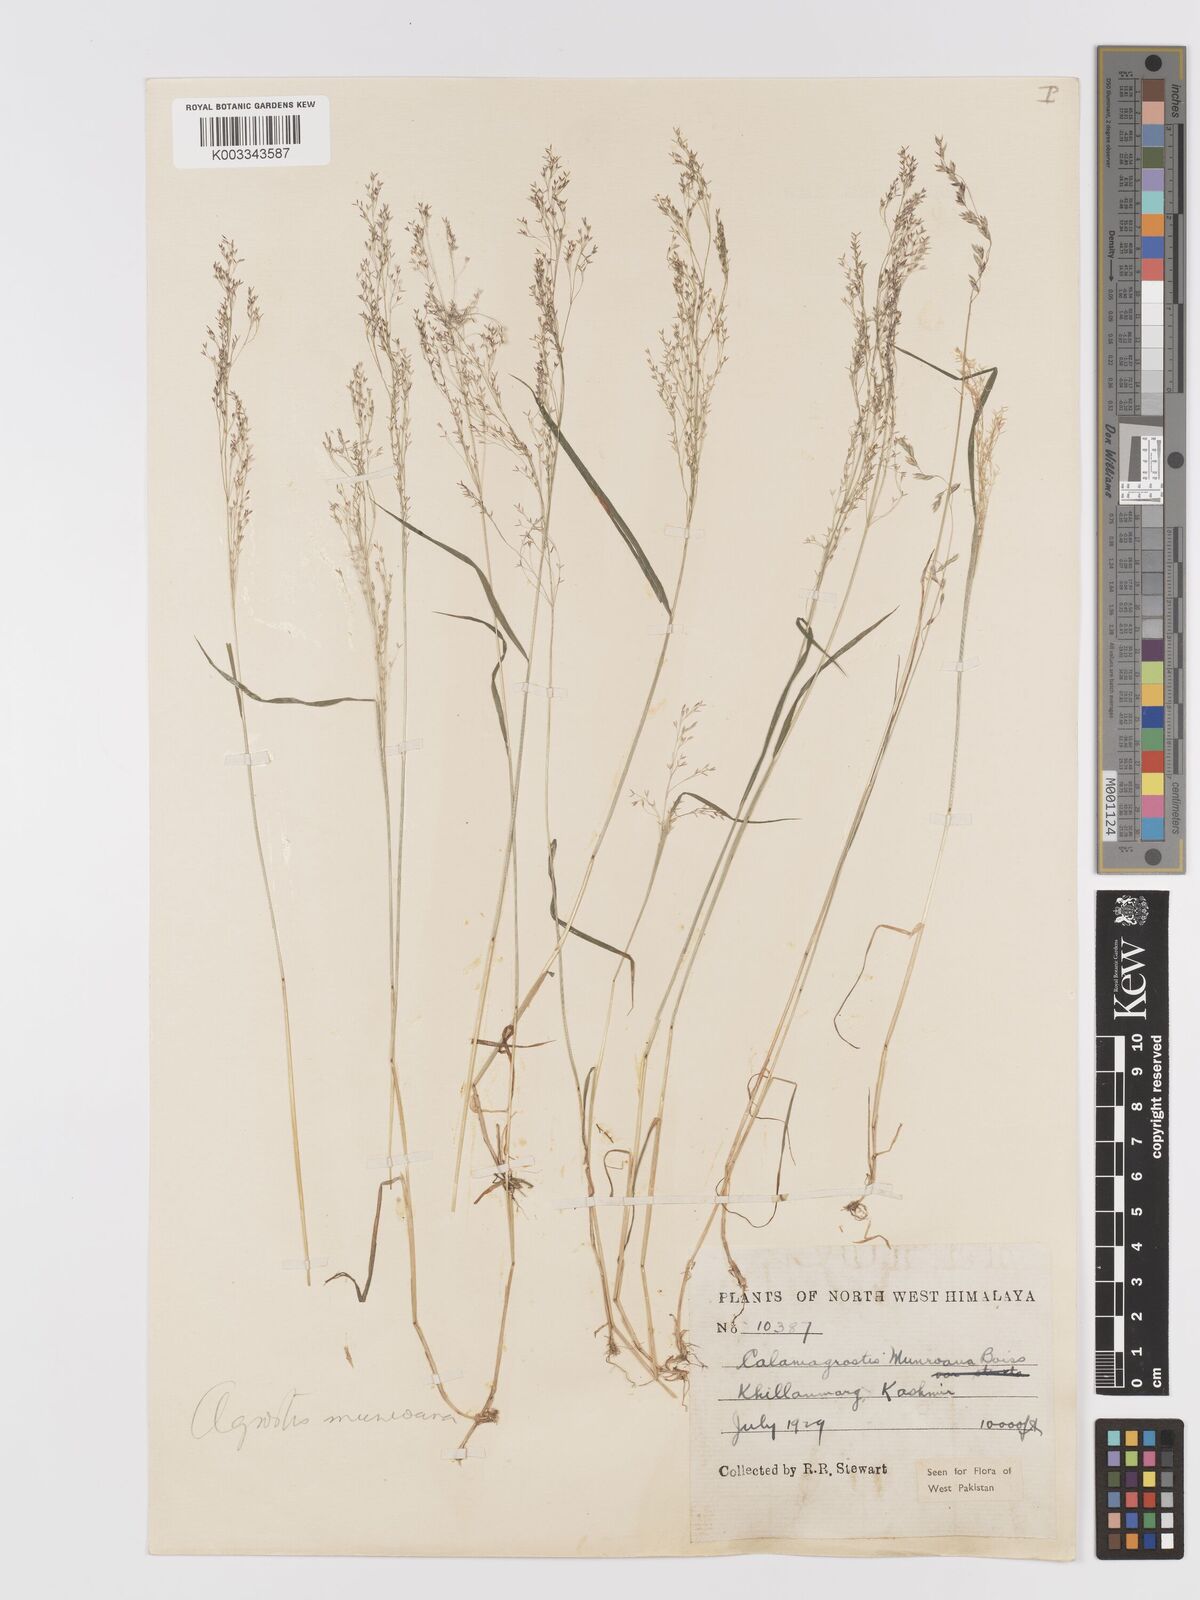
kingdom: Plantae
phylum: Tracheophyta
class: Liliopsida
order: Poales
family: Poaceae
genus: Agrostis
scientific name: Agrostis munroana
